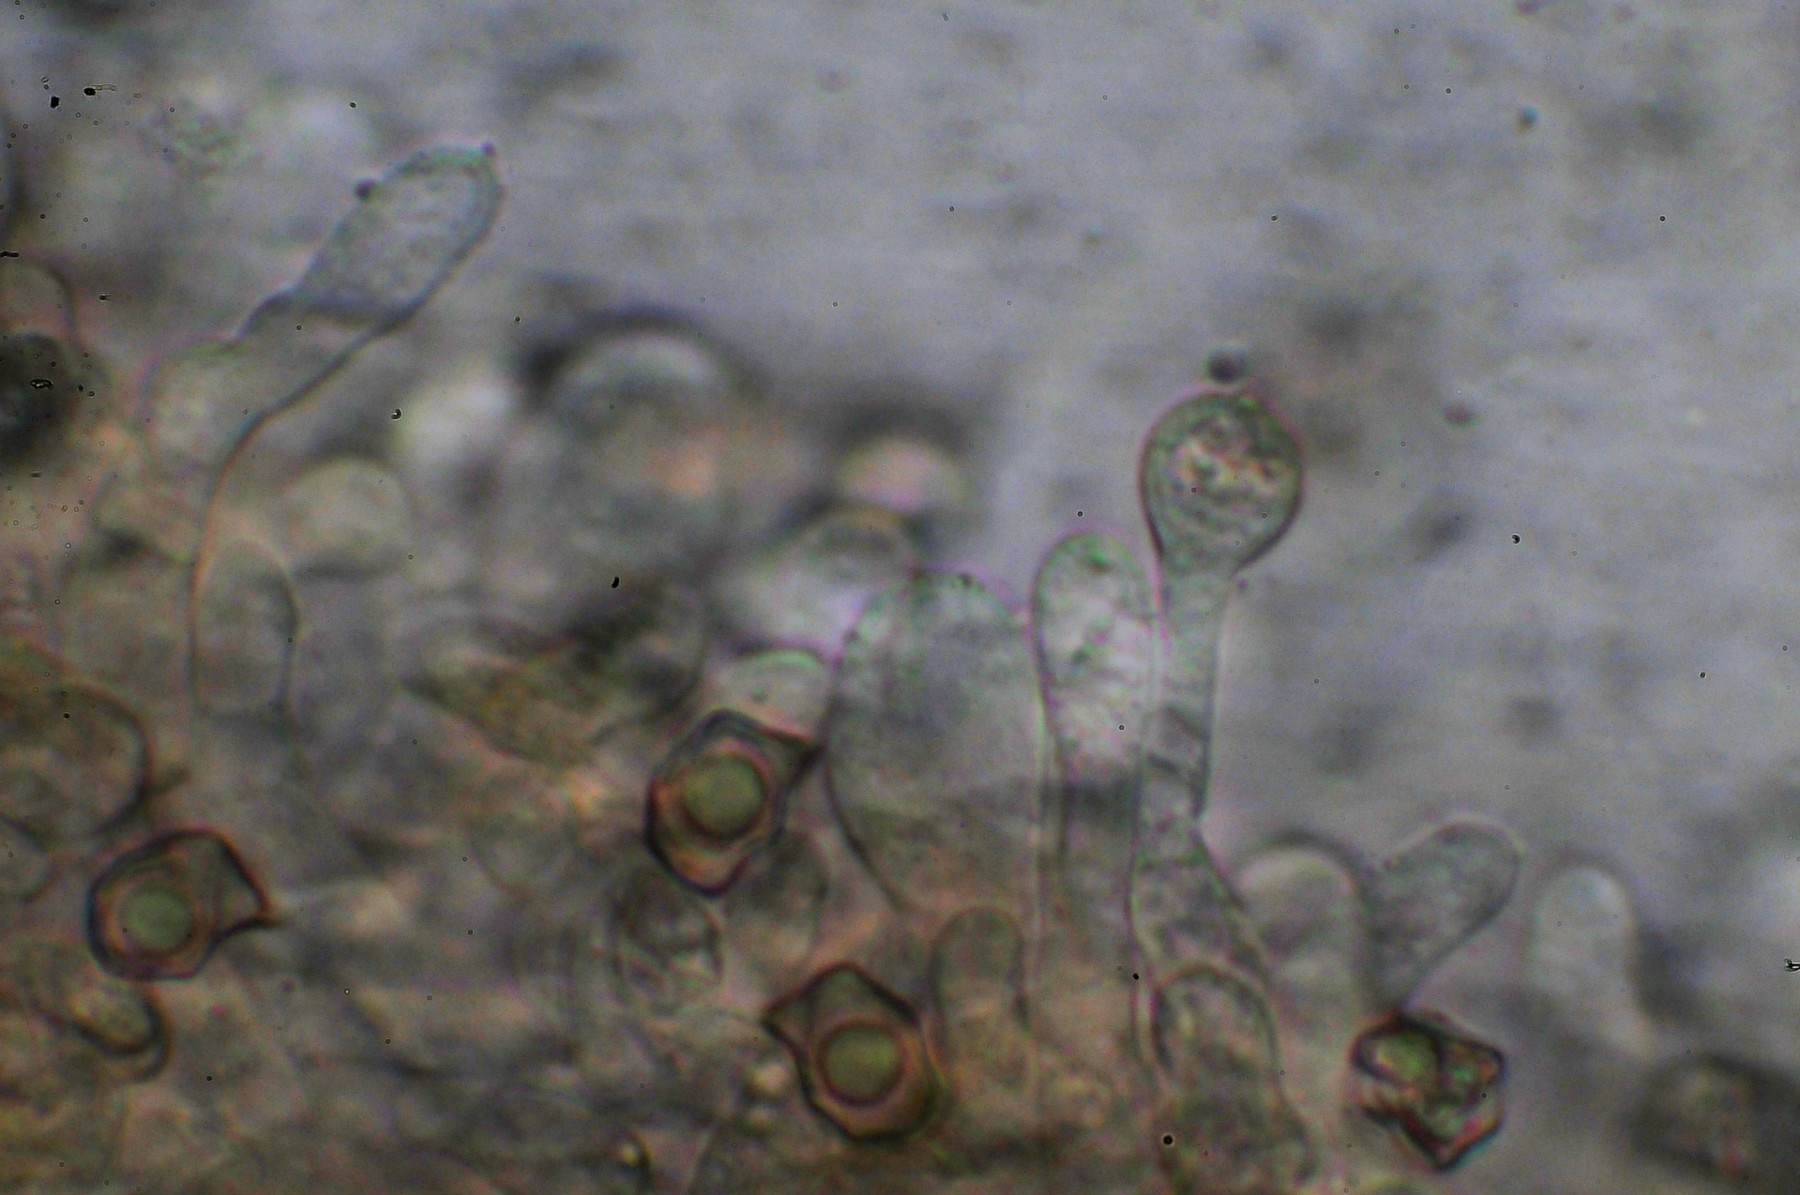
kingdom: Fungi
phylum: Basidiomycota
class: Agaricomycetes
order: Agaricales
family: Entolomataceae
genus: Entoloma
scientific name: Entoloma clandestinum
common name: tykbladet rødblad
